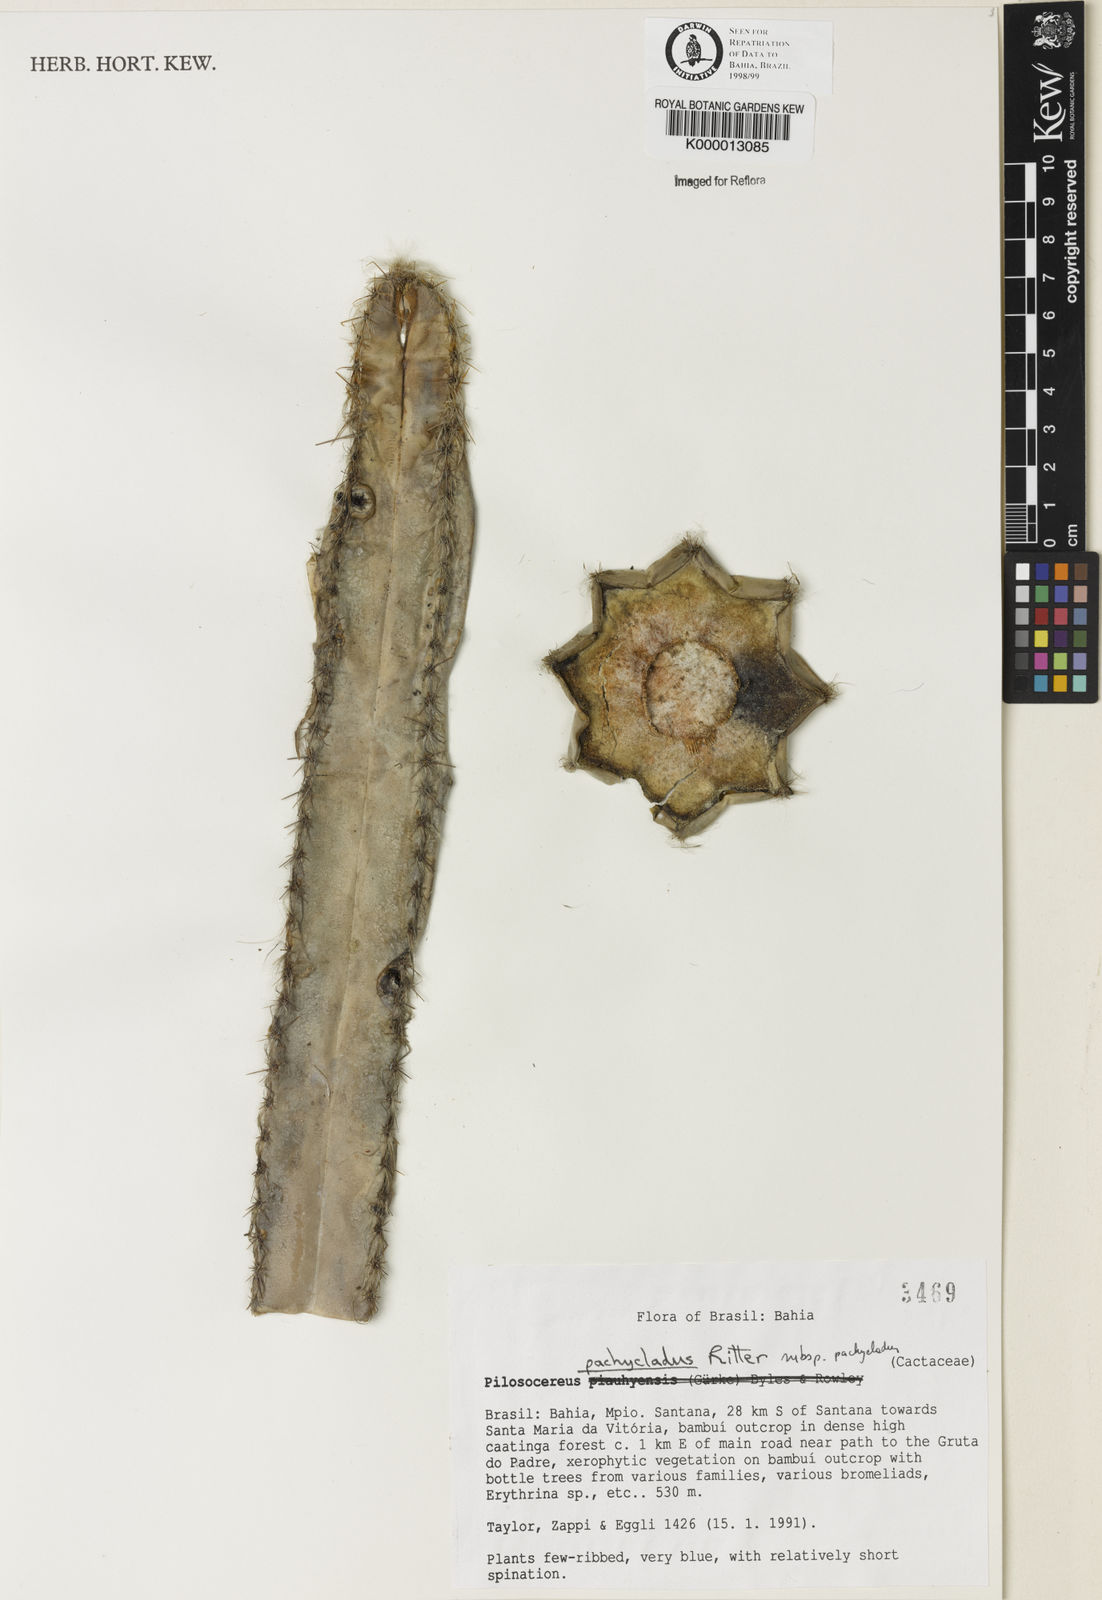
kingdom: Plantae
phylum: Tracheophyta
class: Magnoliopsida
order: Caryophyllales
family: Cactaceae
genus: Pilosocereus
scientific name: Pilosocereus pachycladus
